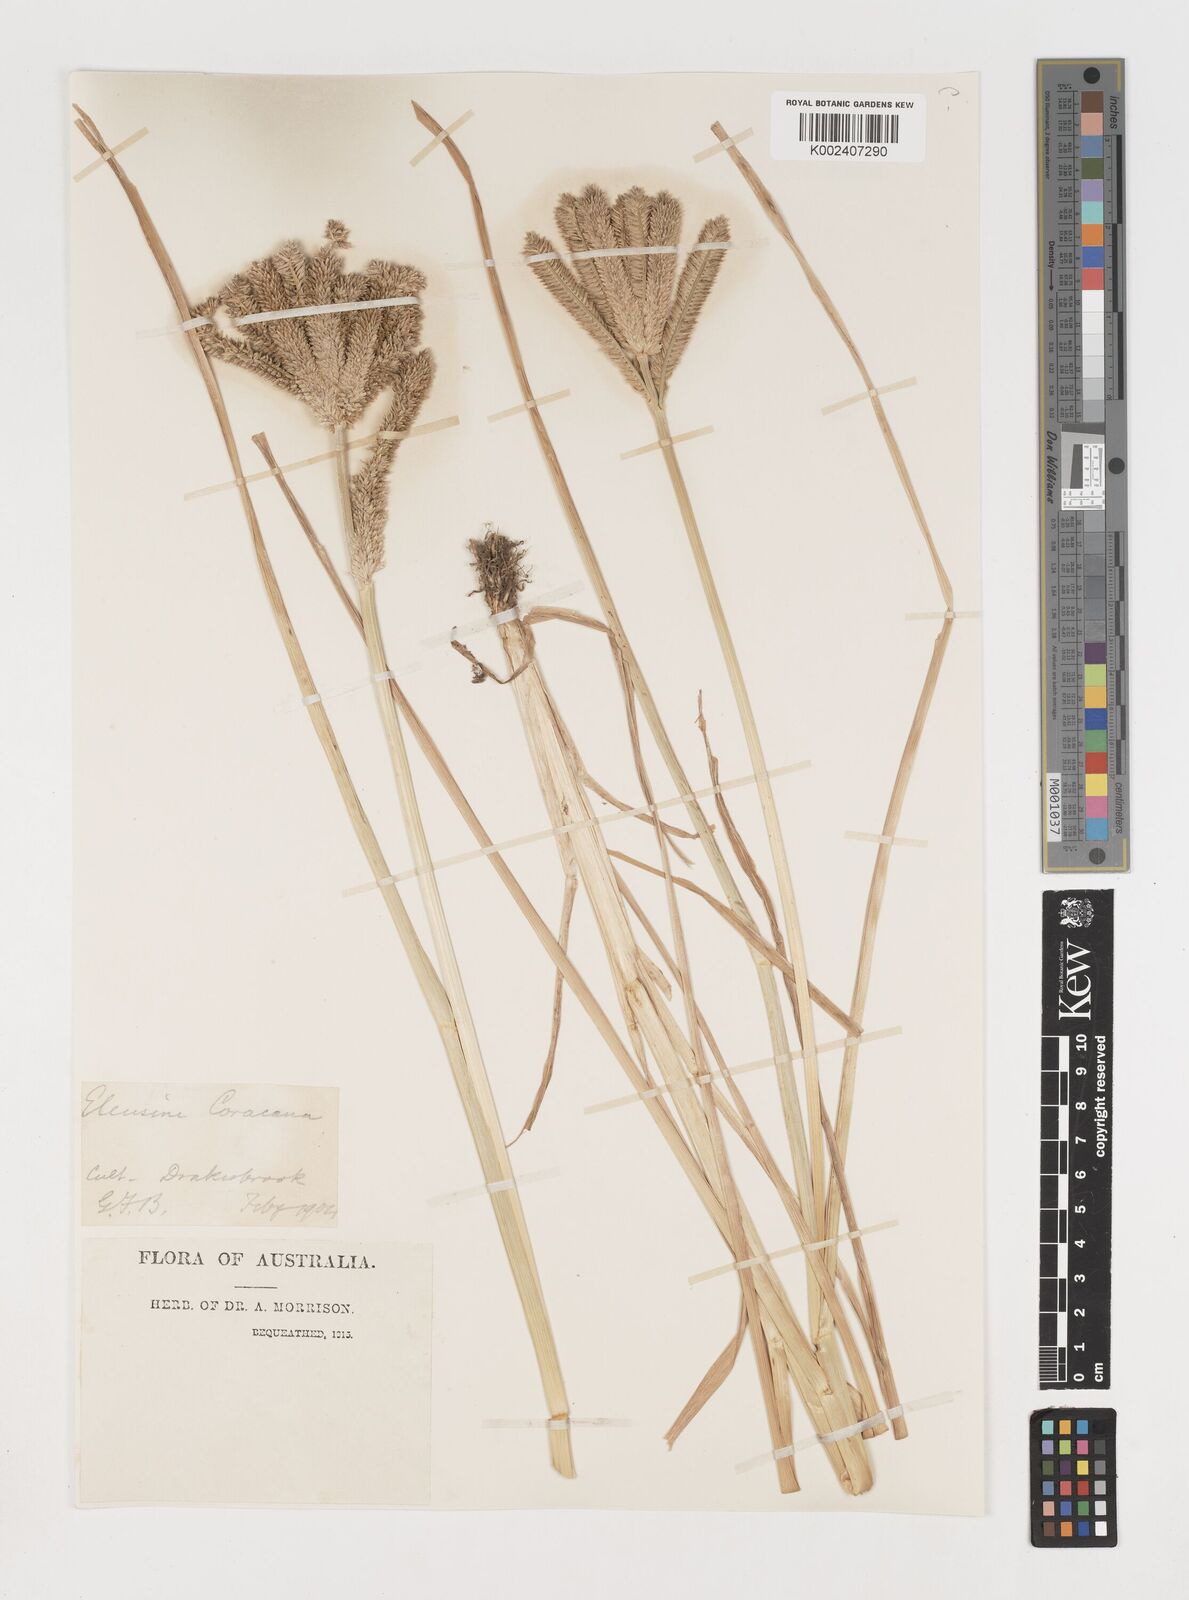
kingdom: Plantae
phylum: Tracheophyta
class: Liliopsida
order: Poales
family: Poaceae
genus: Eleusine
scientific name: Eleusine coracana
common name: Finger millet
